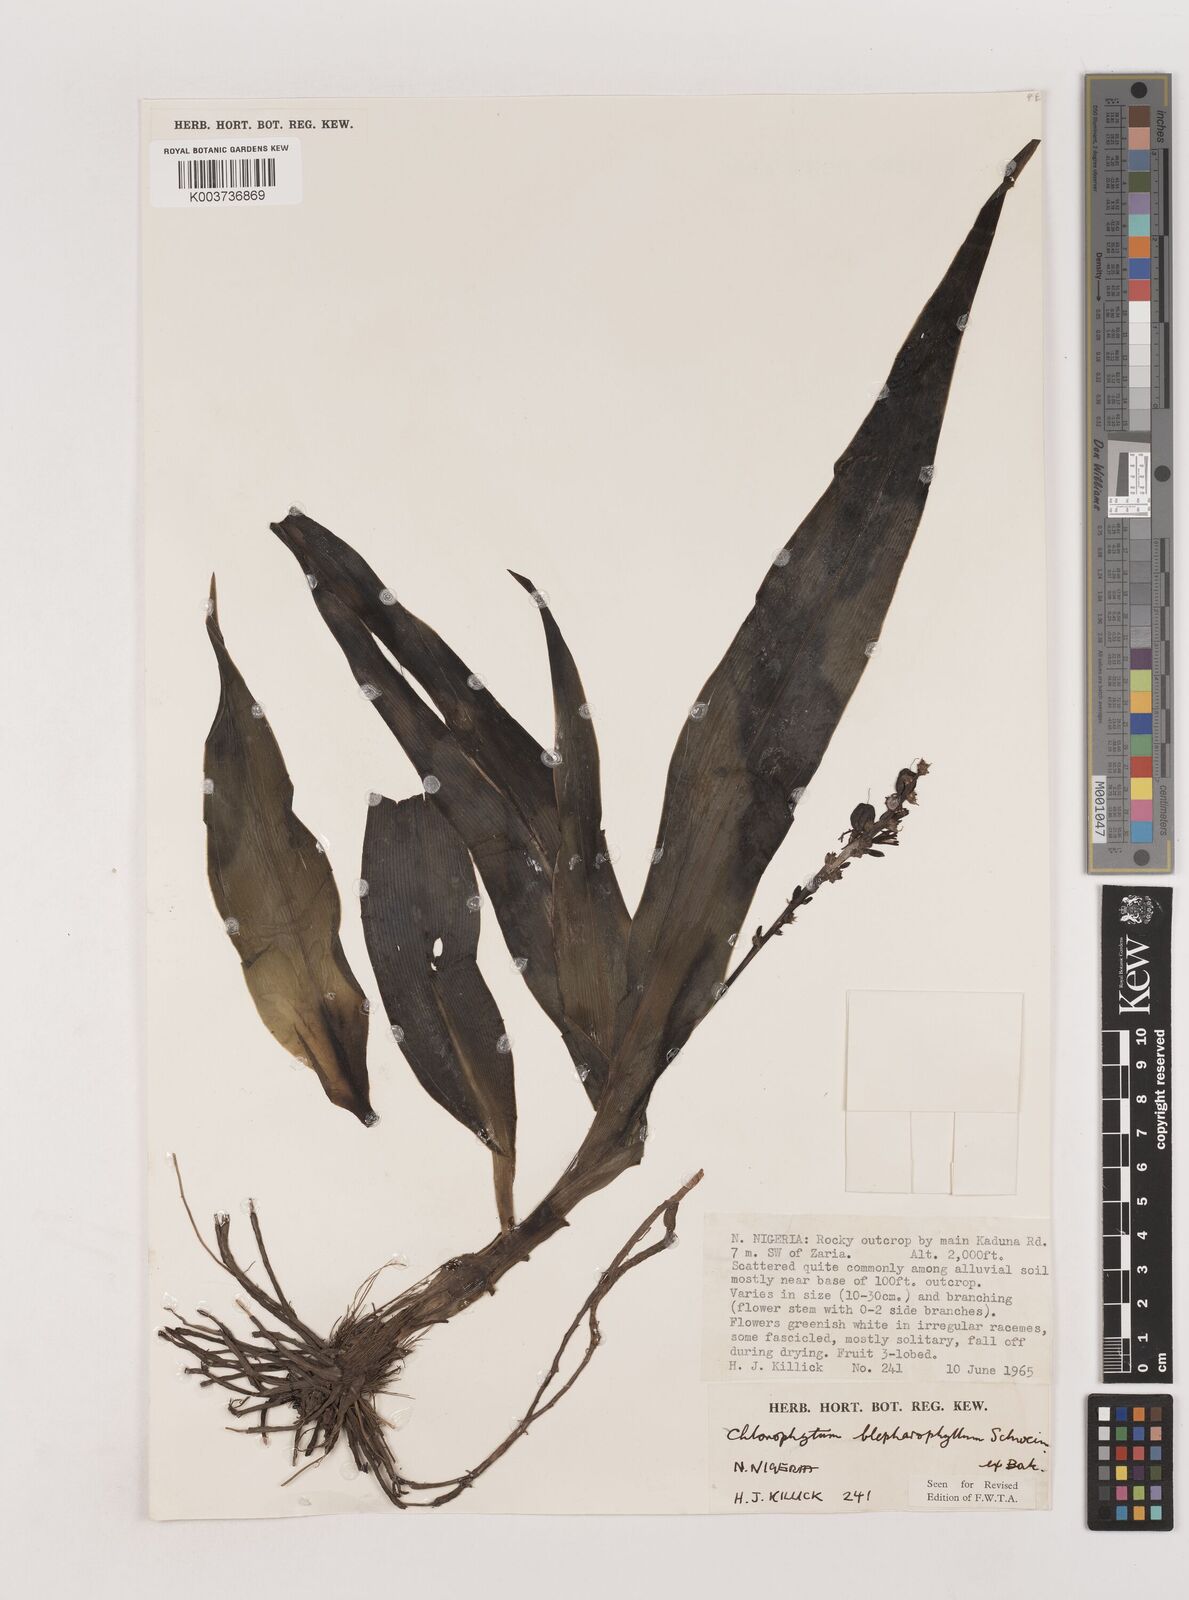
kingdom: Plantae
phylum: Tracheophyta
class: Liliopsida
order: Asparagales
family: Asparagaceae
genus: Chlorophytum
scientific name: Chlorophytum blepharophyllum
